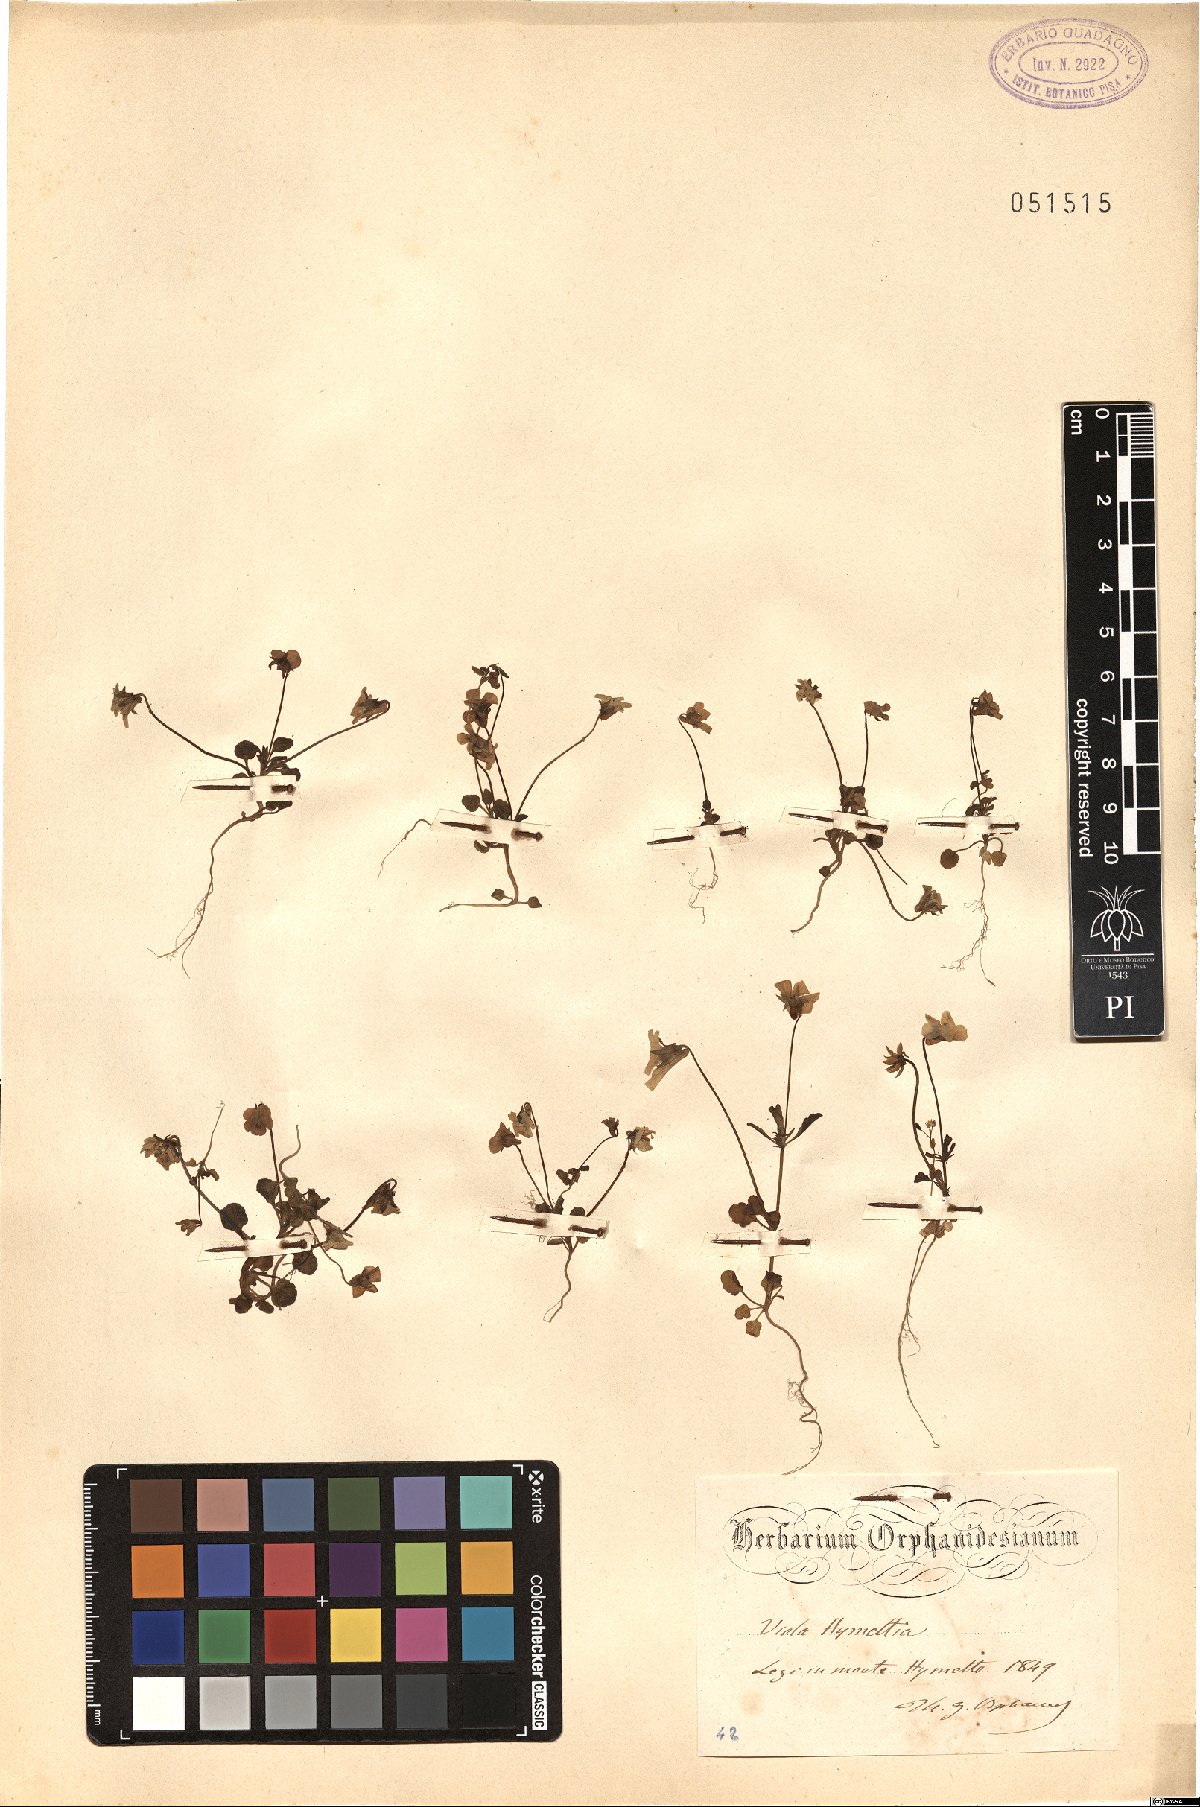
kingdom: Plantae
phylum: Tracheophyta
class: Magnoliopsida
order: Malpighiales
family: Violaceae
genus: Viola
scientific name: Viola hymettia
